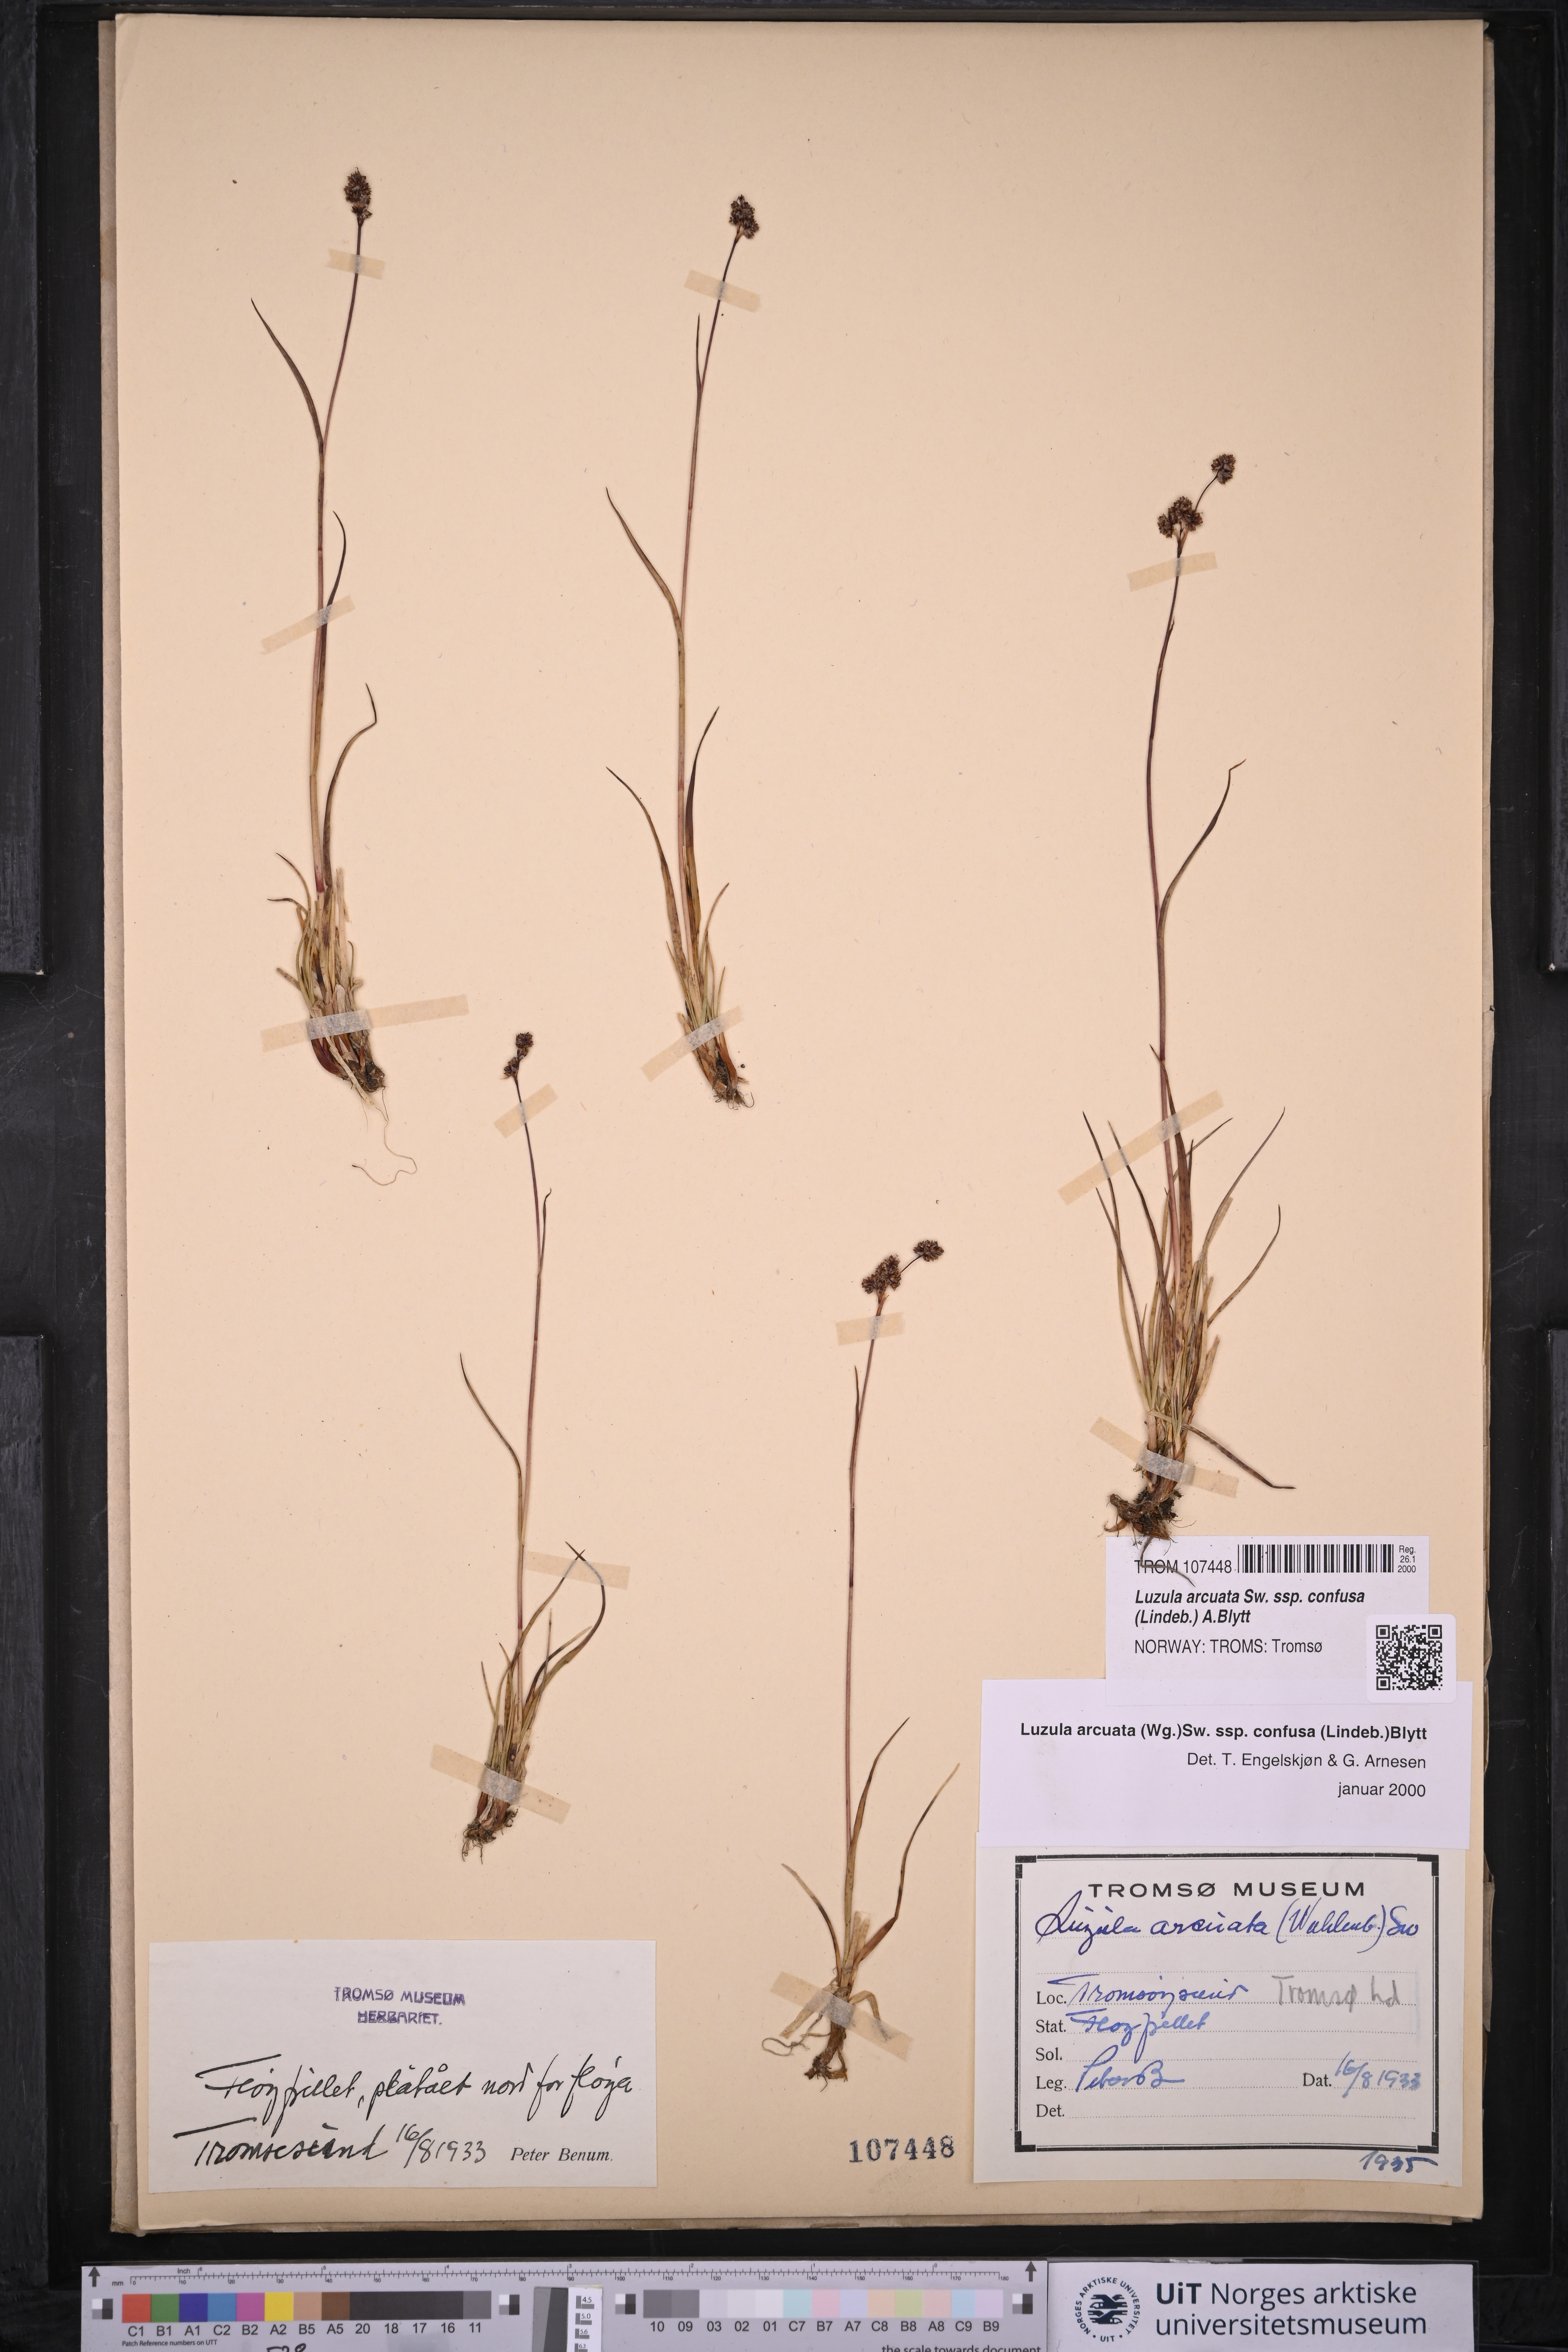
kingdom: Plantae
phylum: Tracheophyta
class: Liliopsida
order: Poales
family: Juncaceae
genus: Luzula
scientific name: Luzula confusa
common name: Northern wood rush
